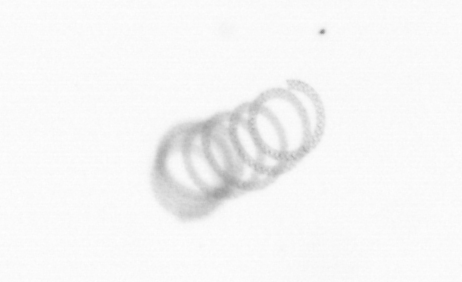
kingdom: Chromista
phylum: Ochrophyta
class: Bacillariophyceae
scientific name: Bacillariophyceae
